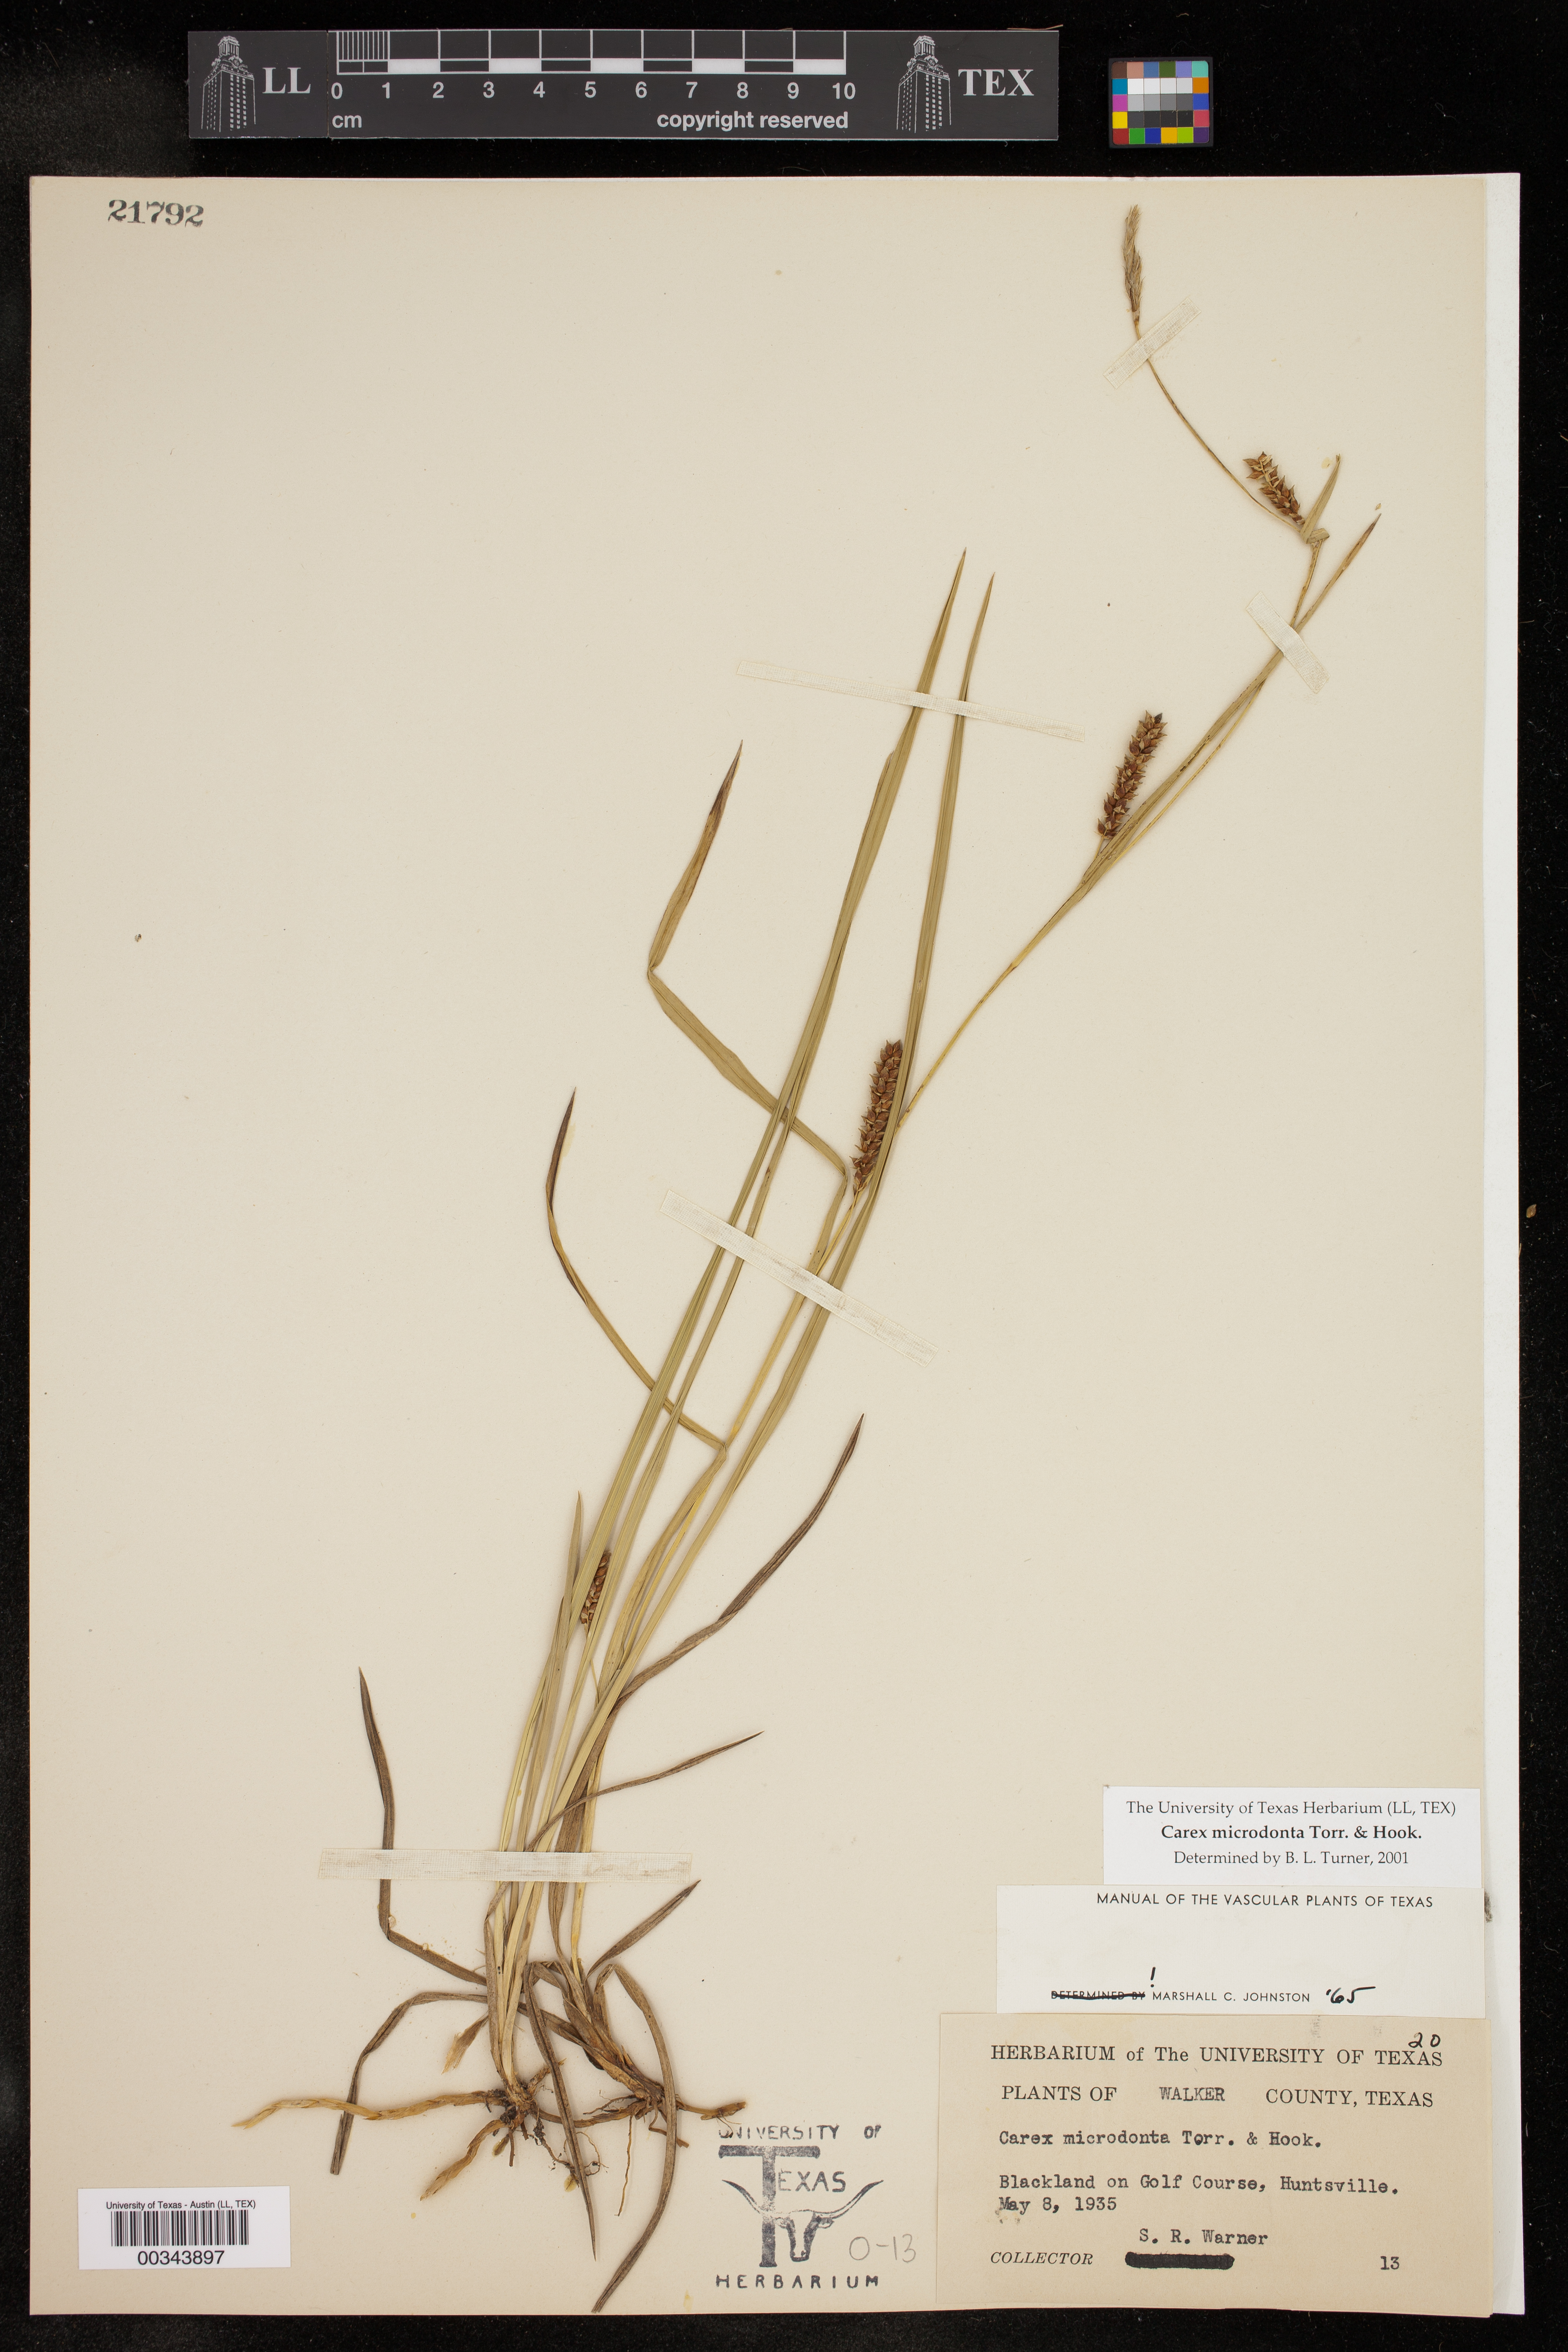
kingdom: Plantae
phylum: Tracheophyta
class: Liliopsida
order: Poales
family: Cyperaceae
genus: Carex
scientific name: Carex microdonta
